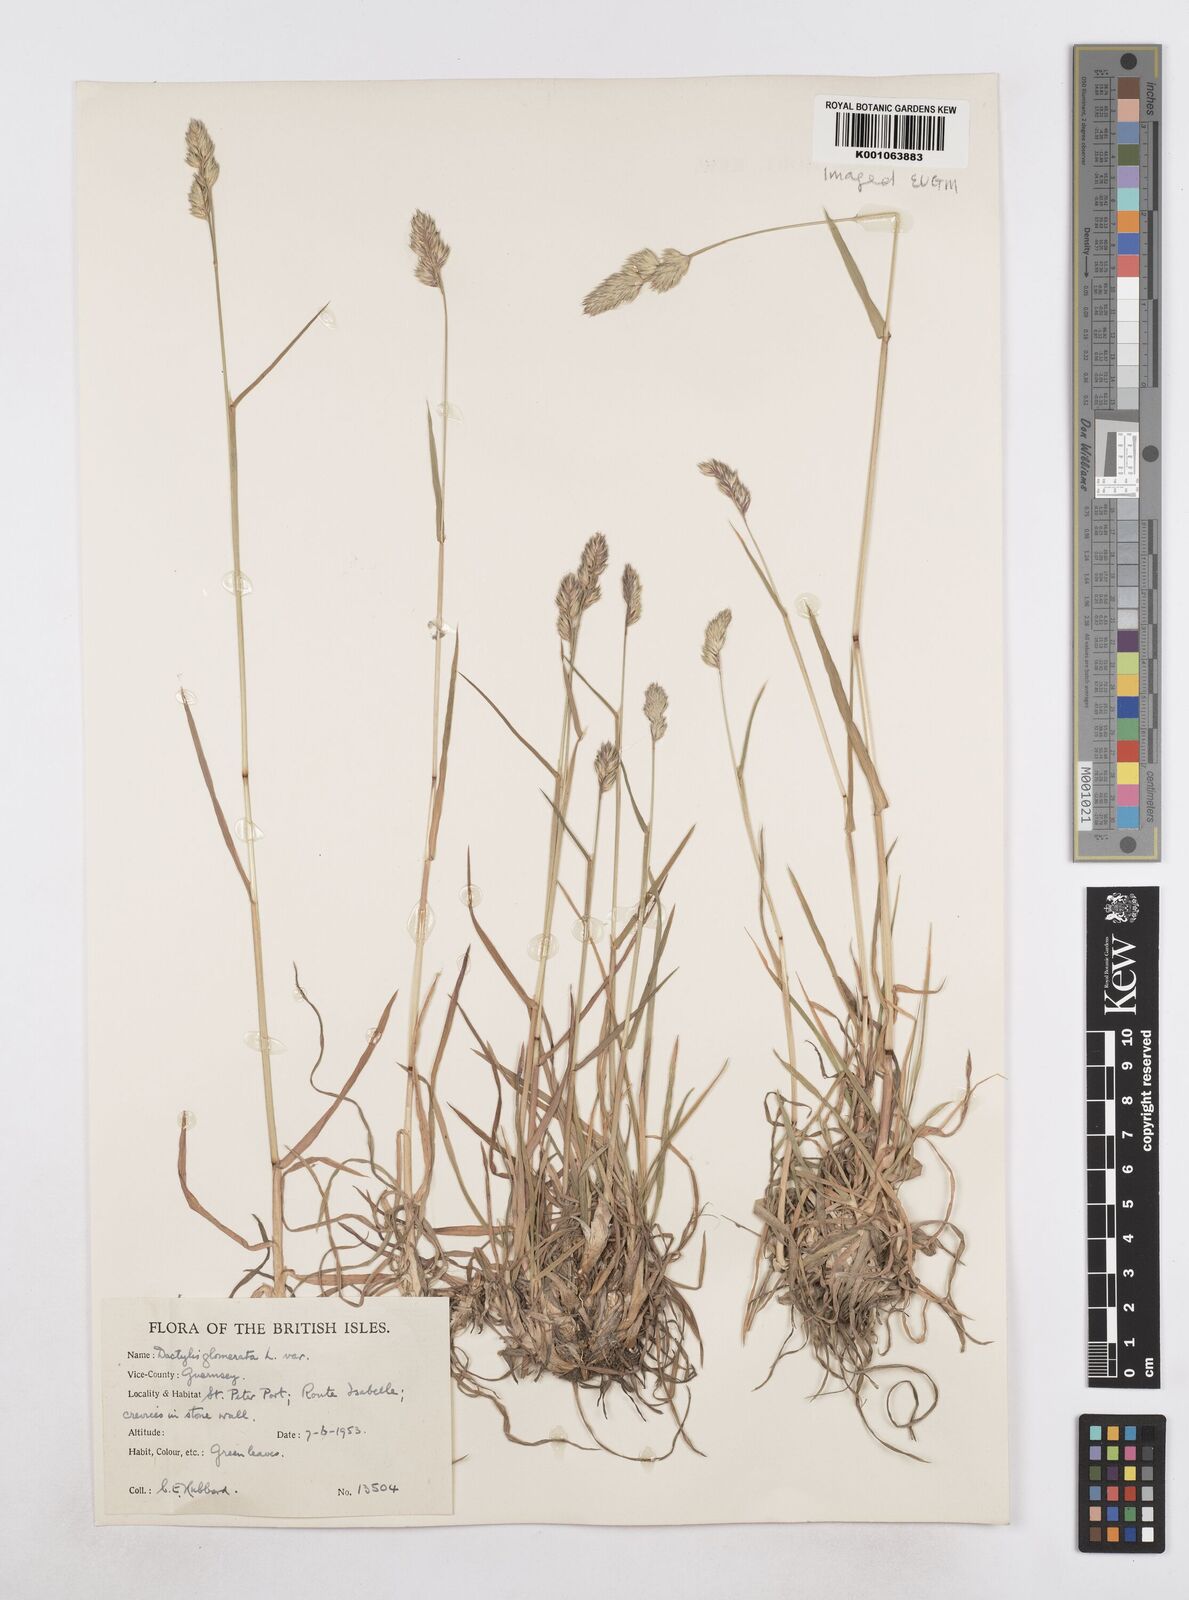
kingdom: Plantae
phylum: Tracheophyta
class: Liliopsida
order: Poales
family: Poaceae
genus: Dactylis
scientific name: Dactylis glomerata
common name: Orchardgrass
